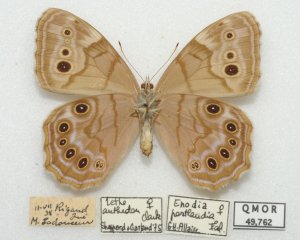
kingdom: Animalia
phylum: Arthropoda
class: Insecta
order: Lepidoptera
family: Nymphalidae
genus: Lethe
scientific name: Lethe anthedon
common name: Northern Pearly-Eye
